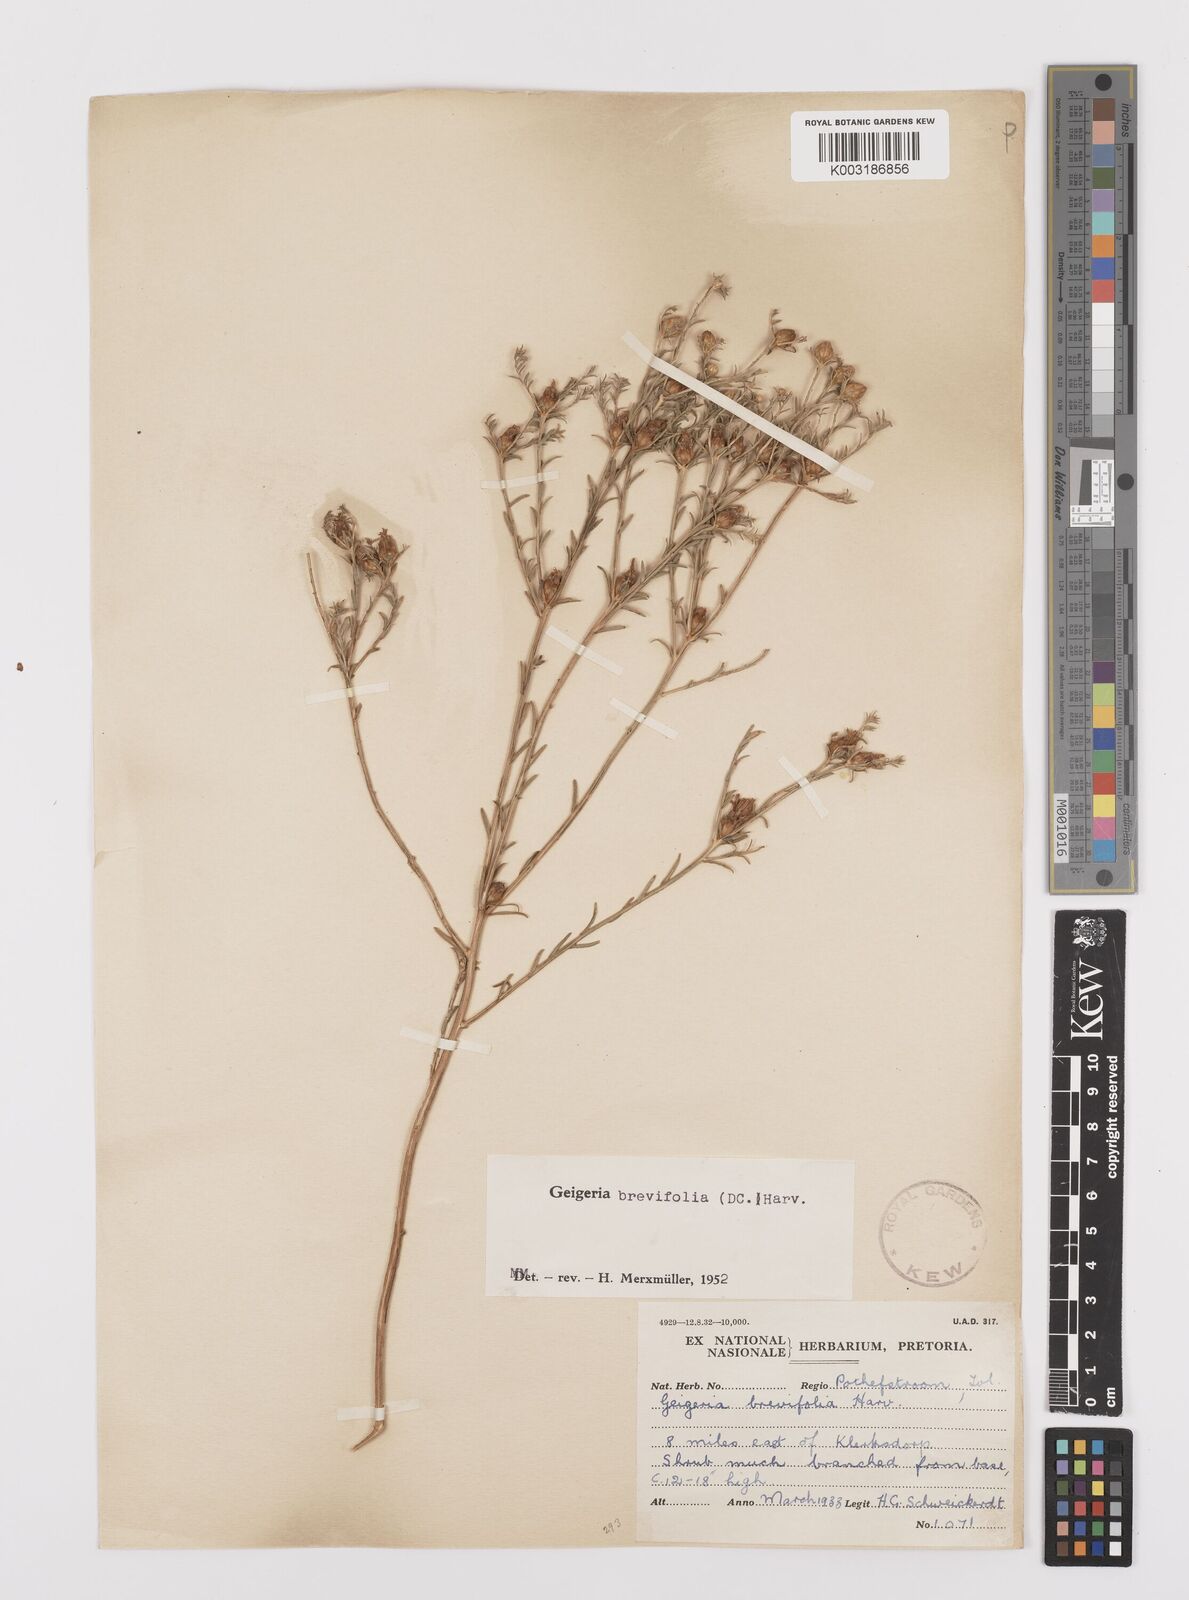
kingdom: Plantae
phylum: Tracheophyta
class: Magnoliopsida
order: Asterales
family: Asteraceae
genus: Geigeria
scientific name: Geigeria brevifolia
